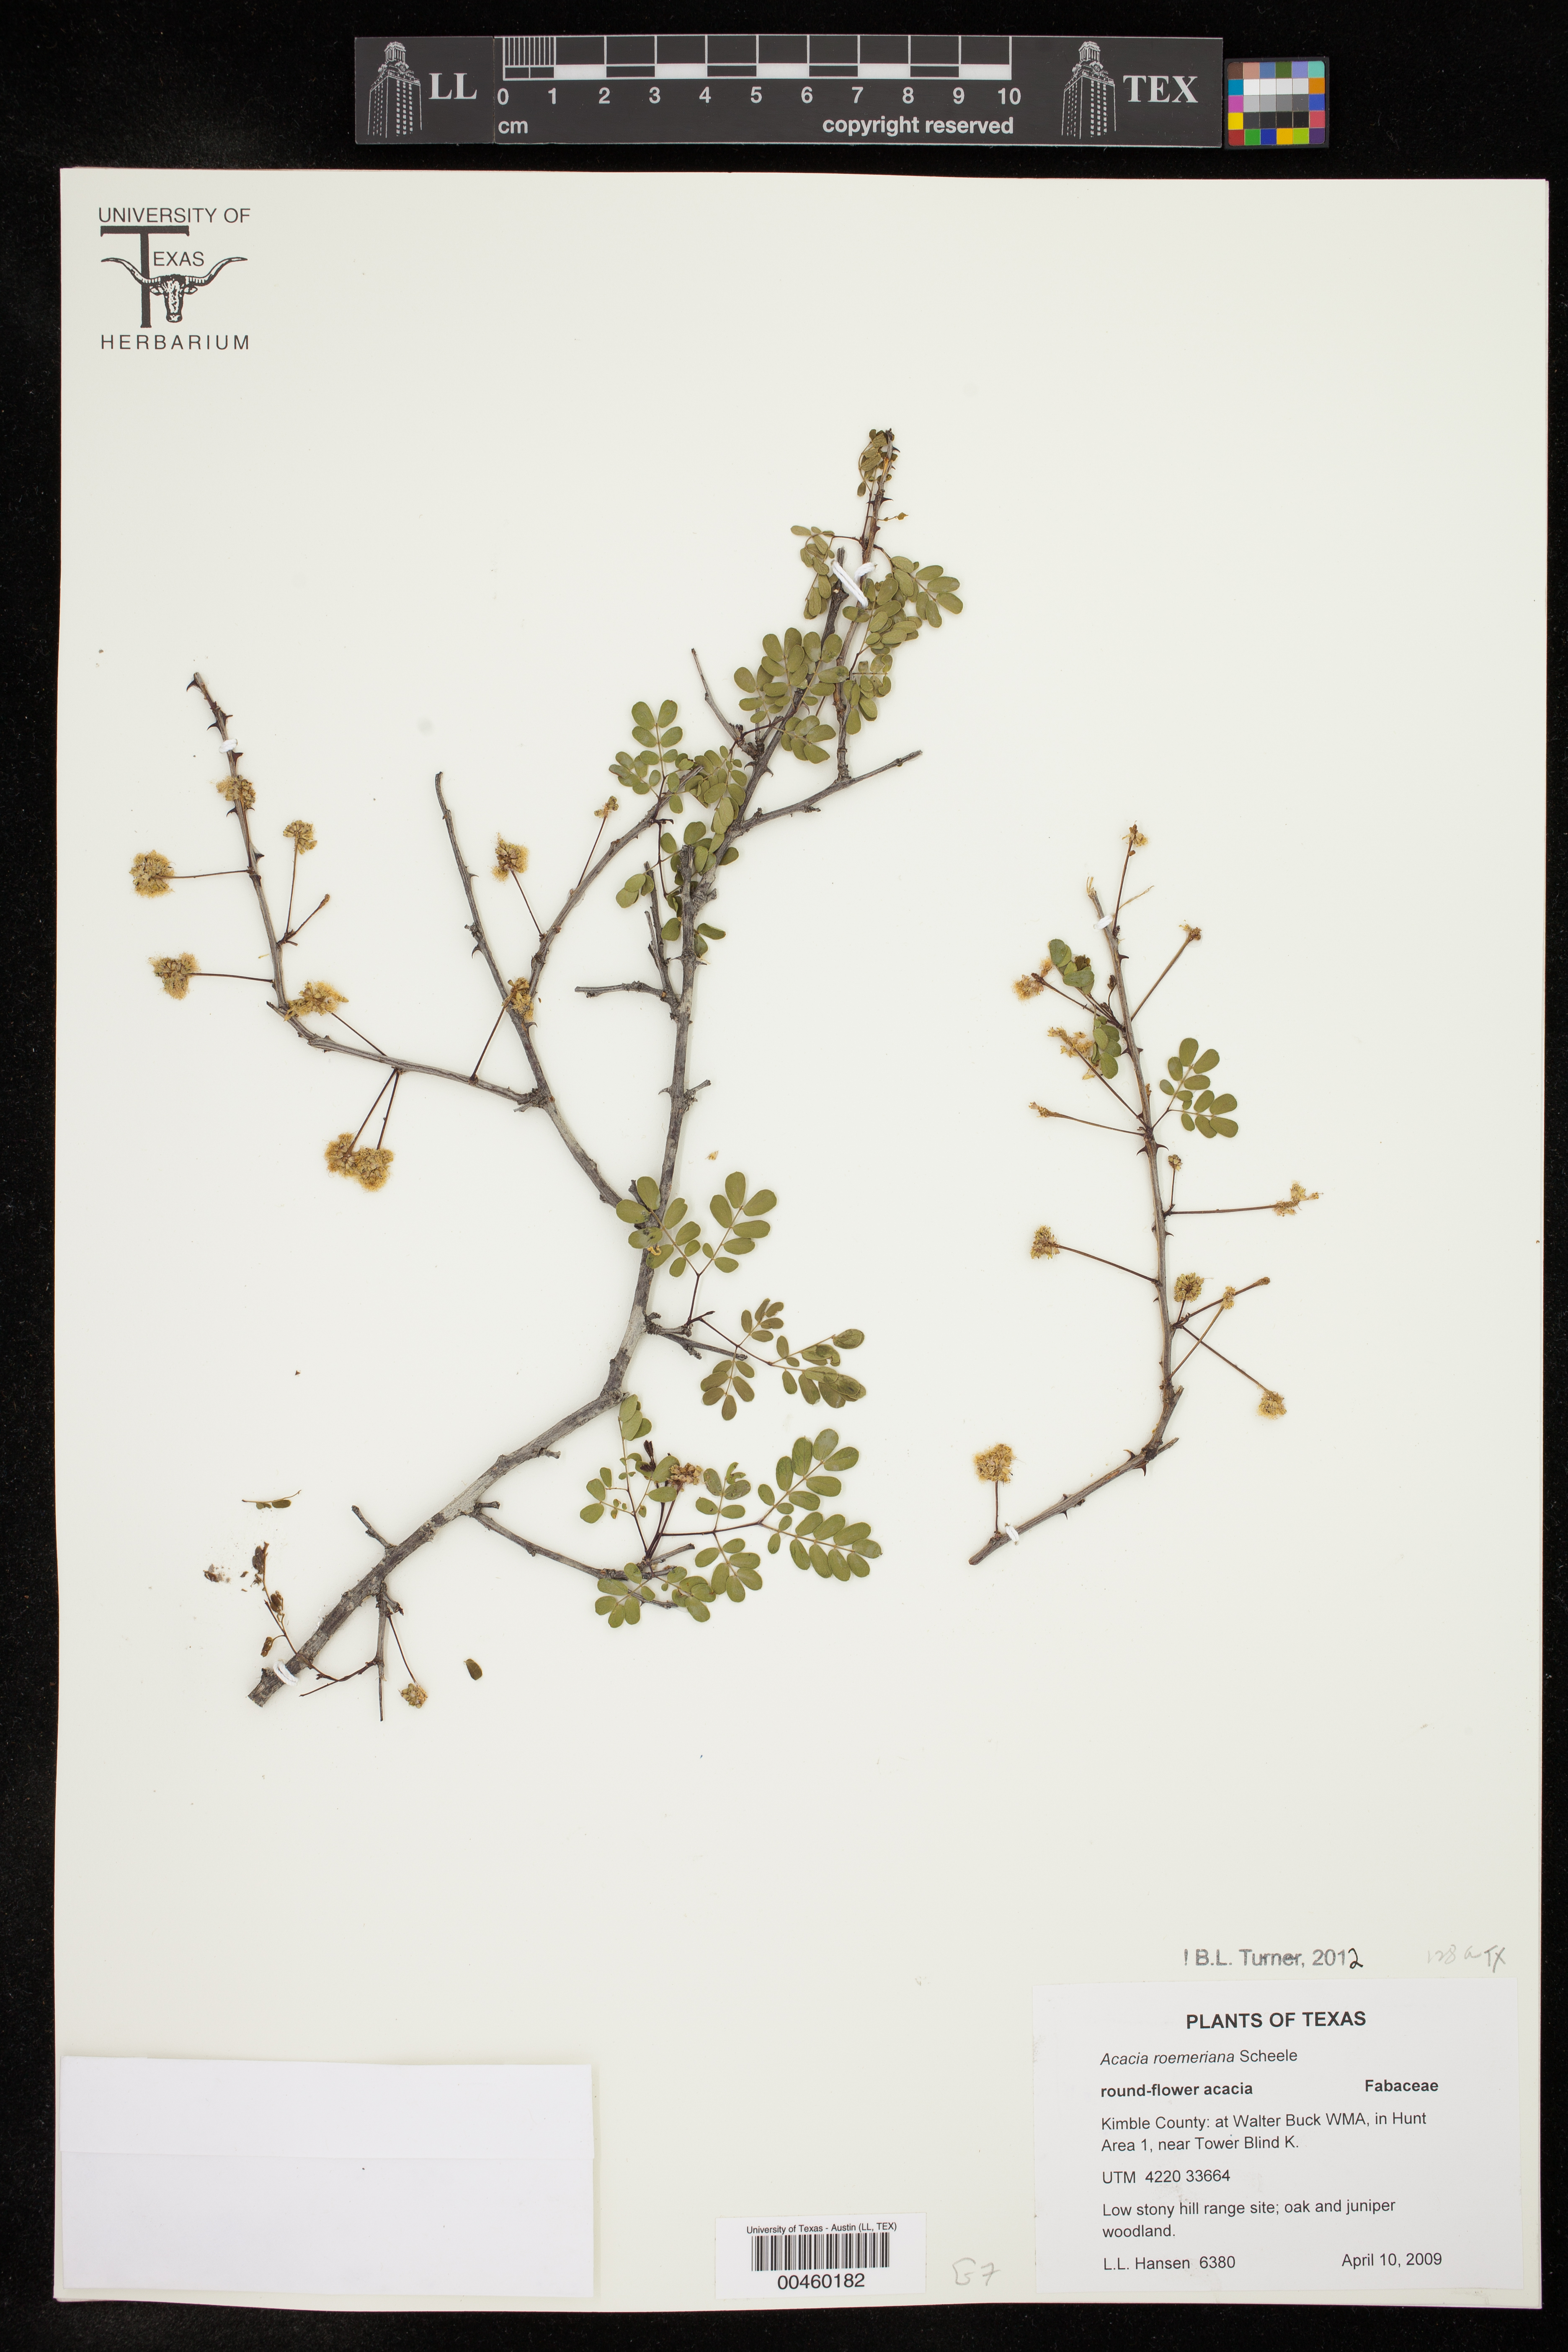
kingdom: Plantae
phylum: Tracheophyta
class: Magnoliopsida
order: Fabales
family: Fabaceae
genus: Senegalia
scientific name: Senegalia roemeriana
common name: Roemer's acacia
